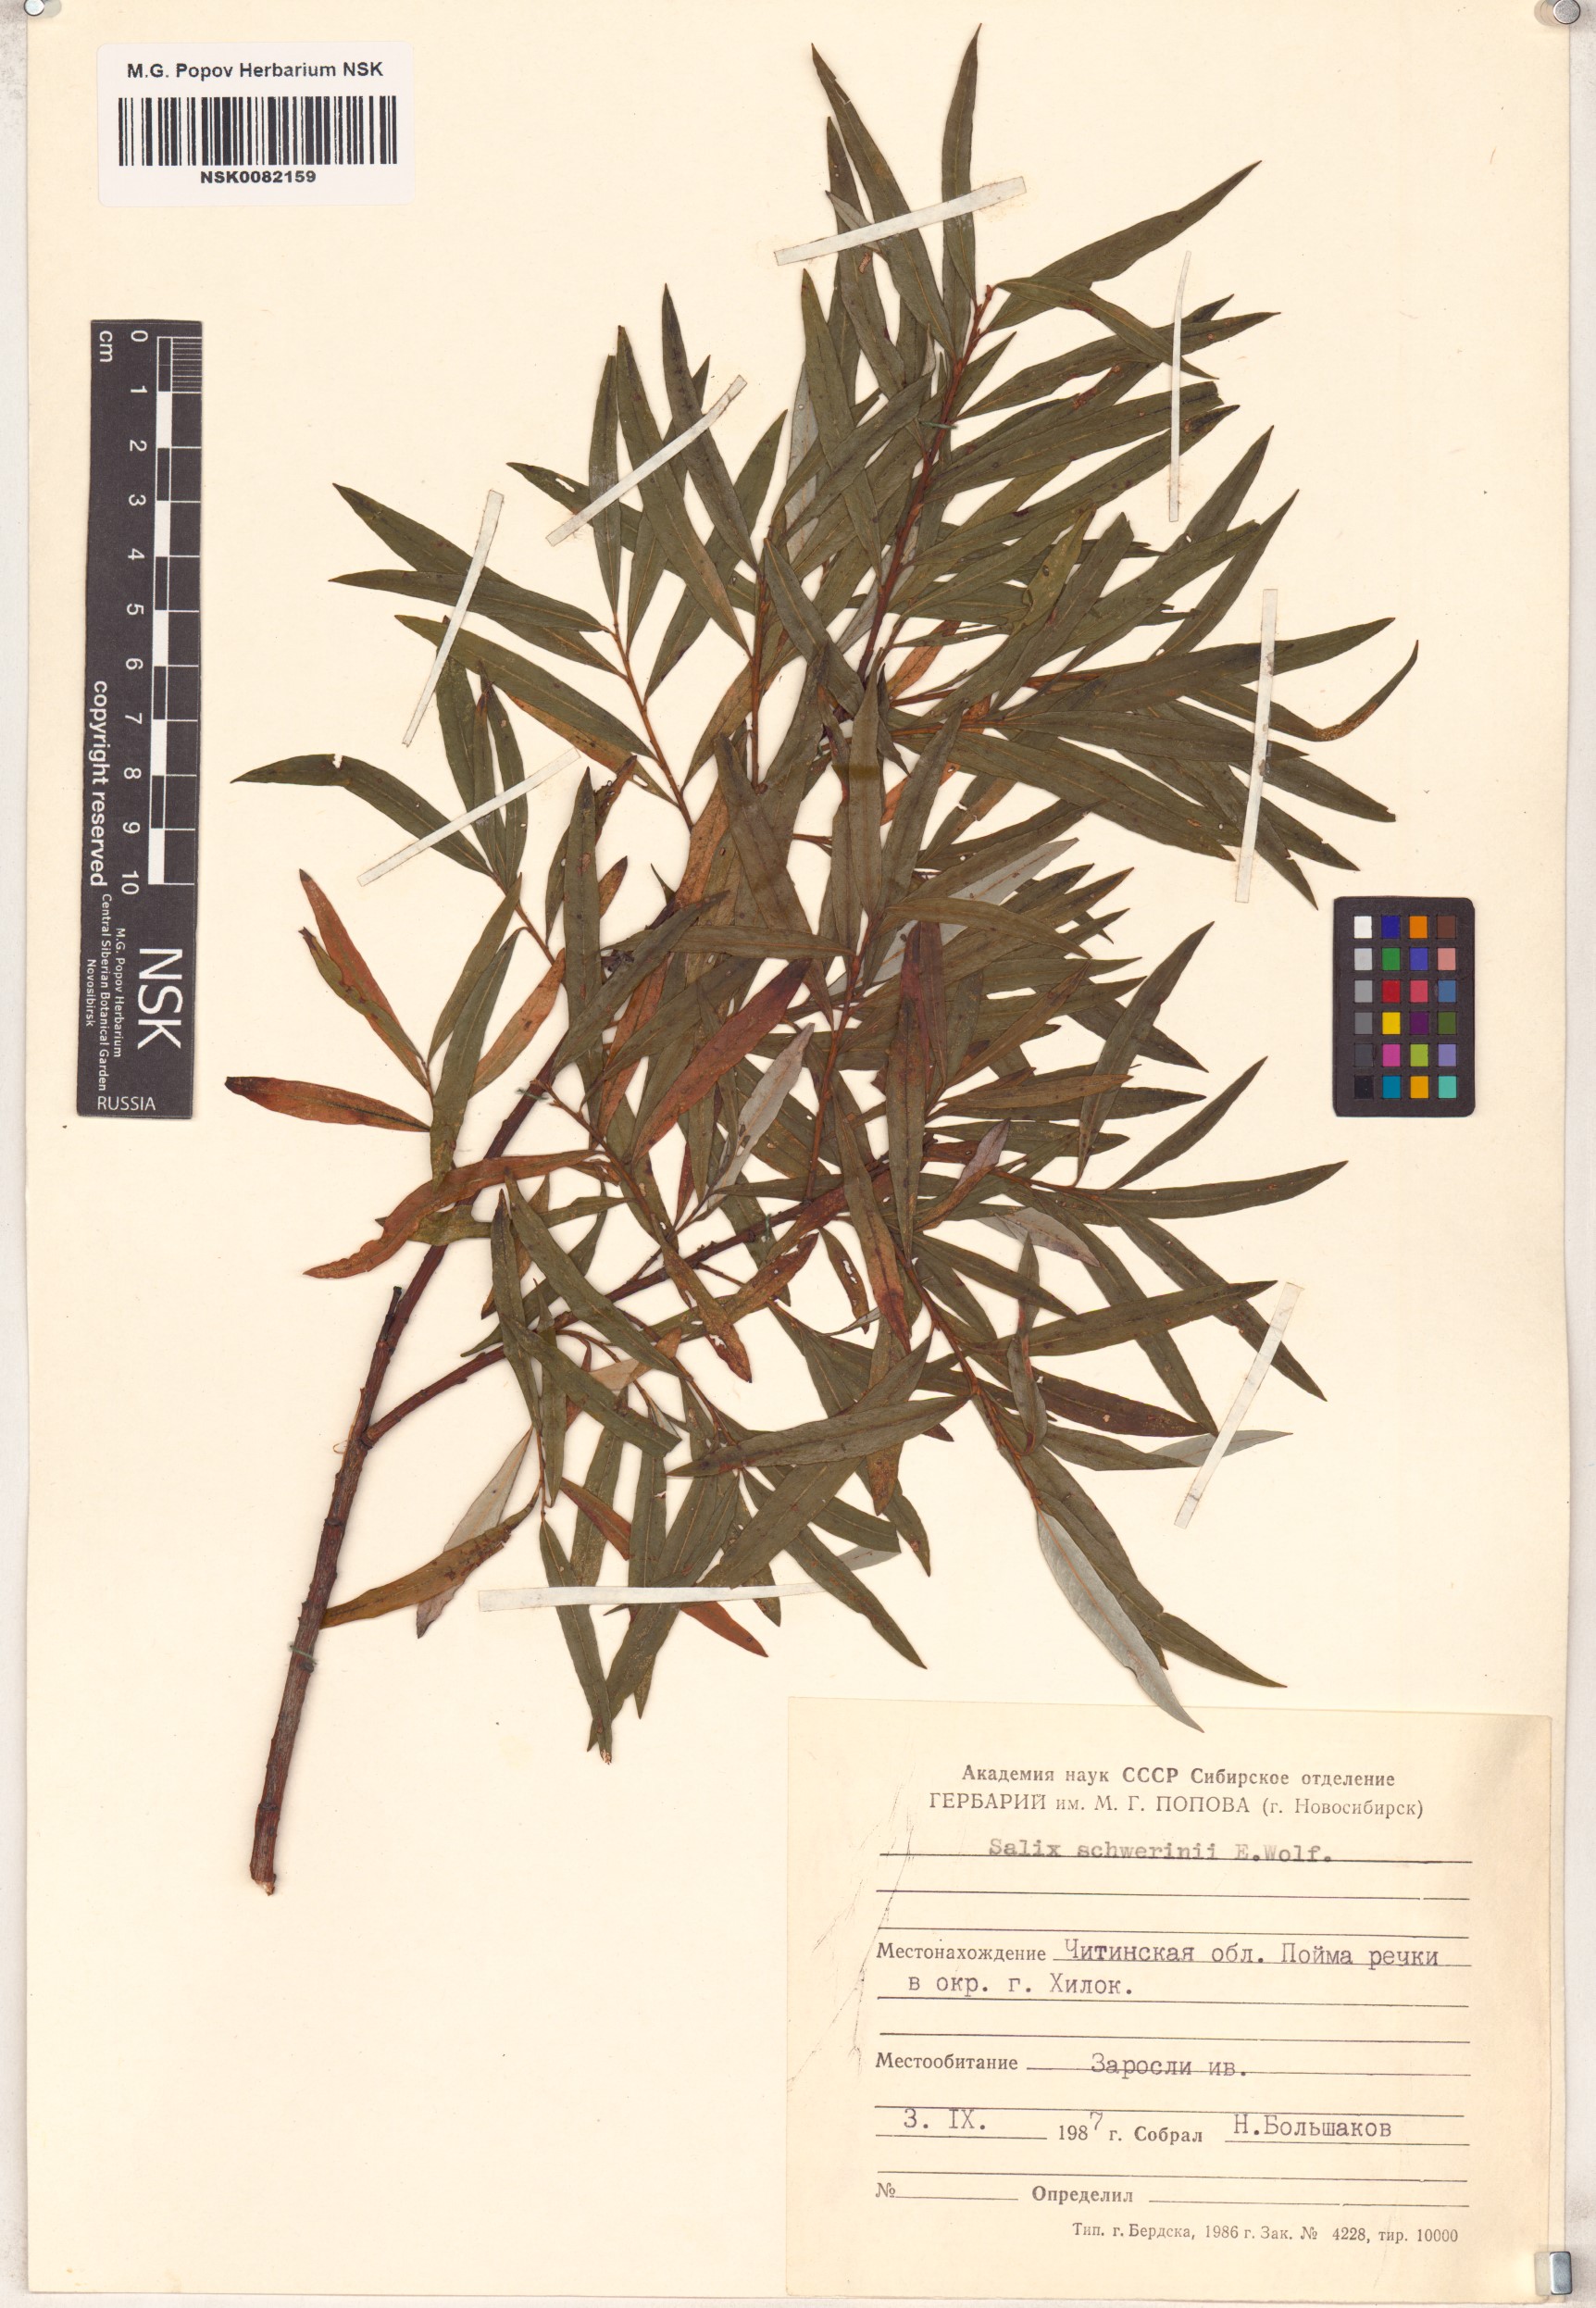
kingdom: Plantae
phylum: Tracheophyta
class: Magnoliopsida
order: Malpighiales
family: Salicaceae
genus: Salix
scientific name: Salix schwerinii
